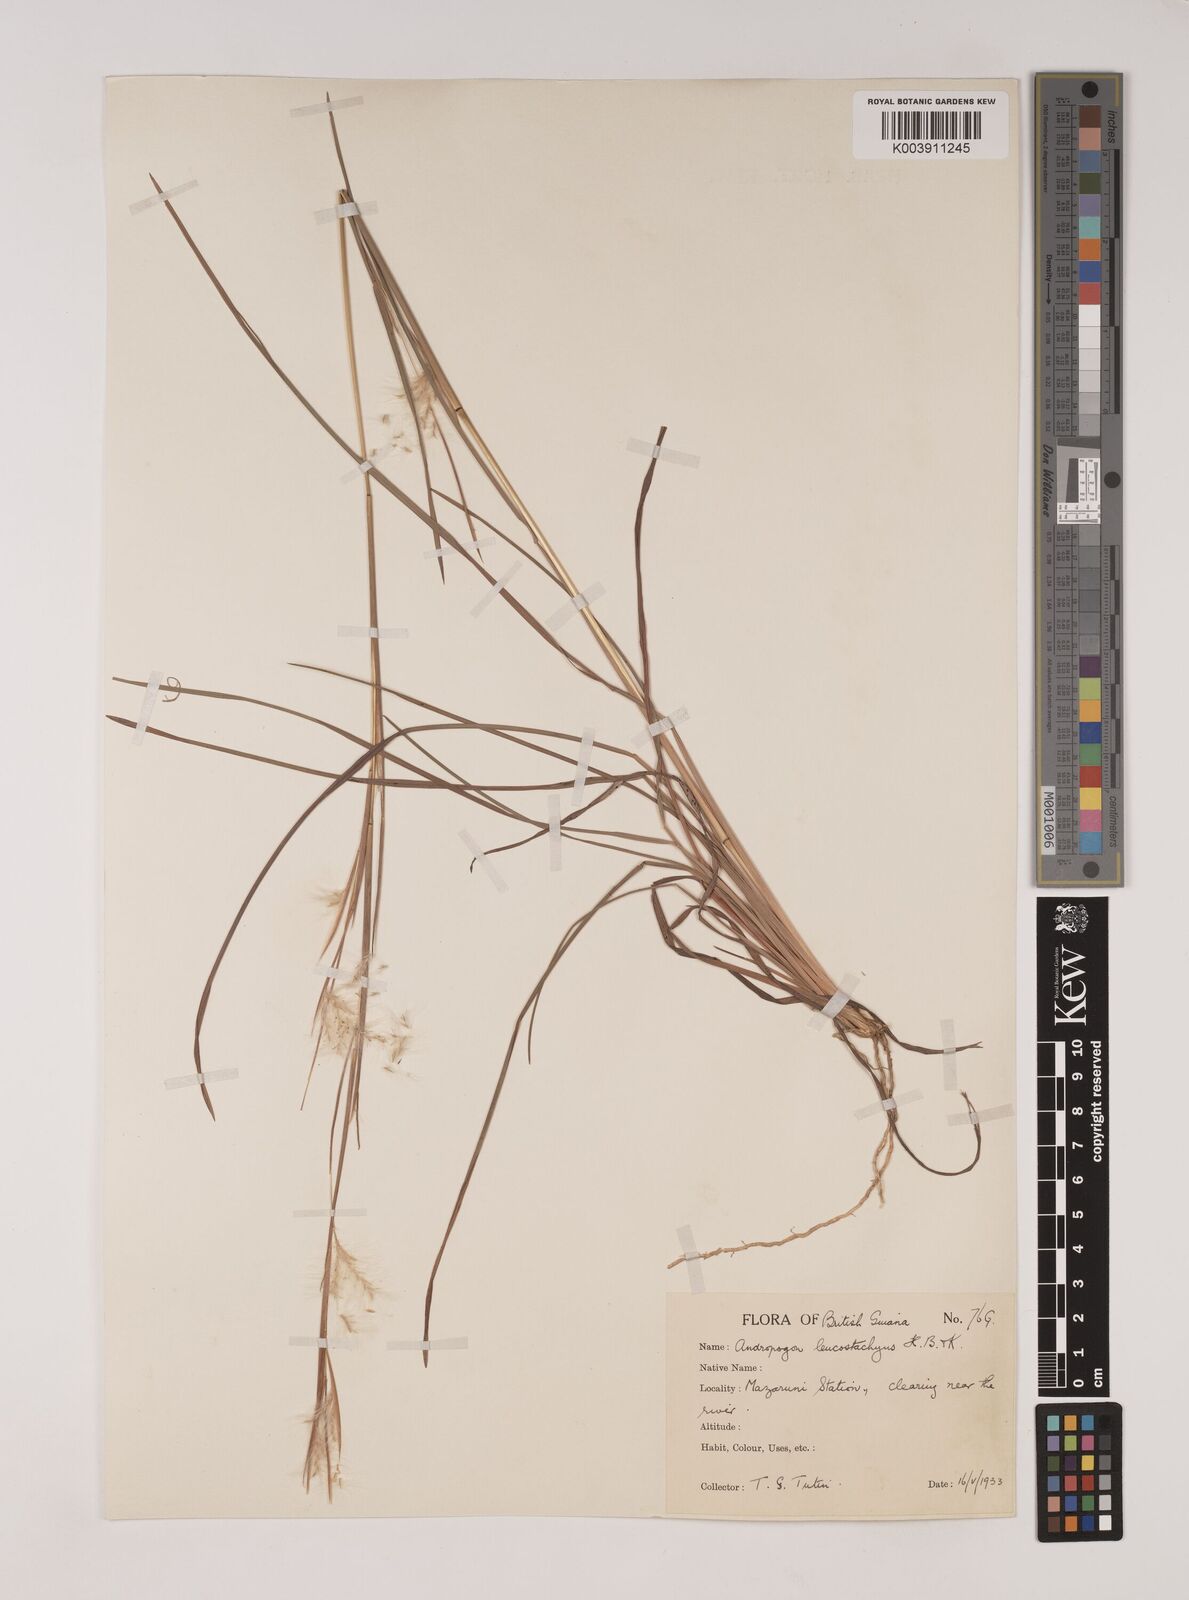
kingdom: Plantae
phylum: Tracheophyta
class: Liliopsida
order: Poales
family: Poaceae
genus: Andropogon
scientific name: Andropogon leucostachyus
